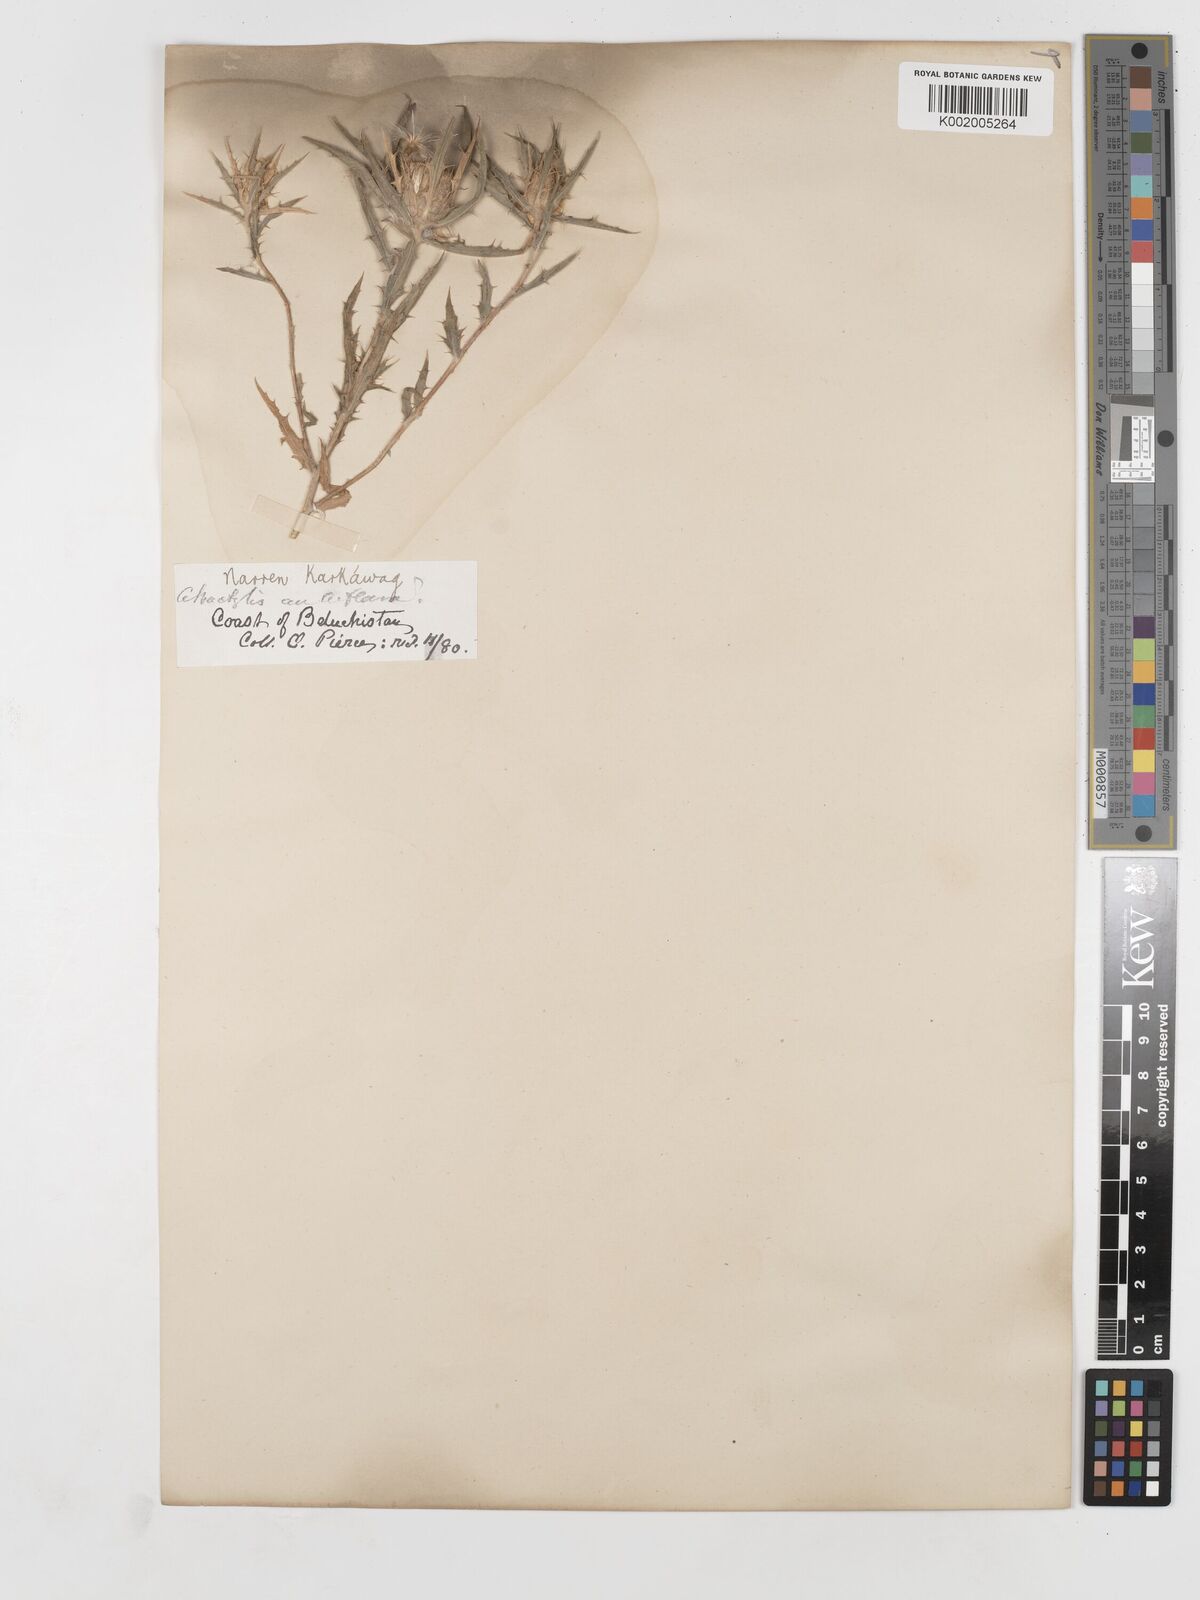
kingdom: Plantae
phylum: Tracheophyta
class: Magnoliopsida
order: Asterales
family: Asteraceae
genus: Atractylis
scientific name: Atractylis carduus
